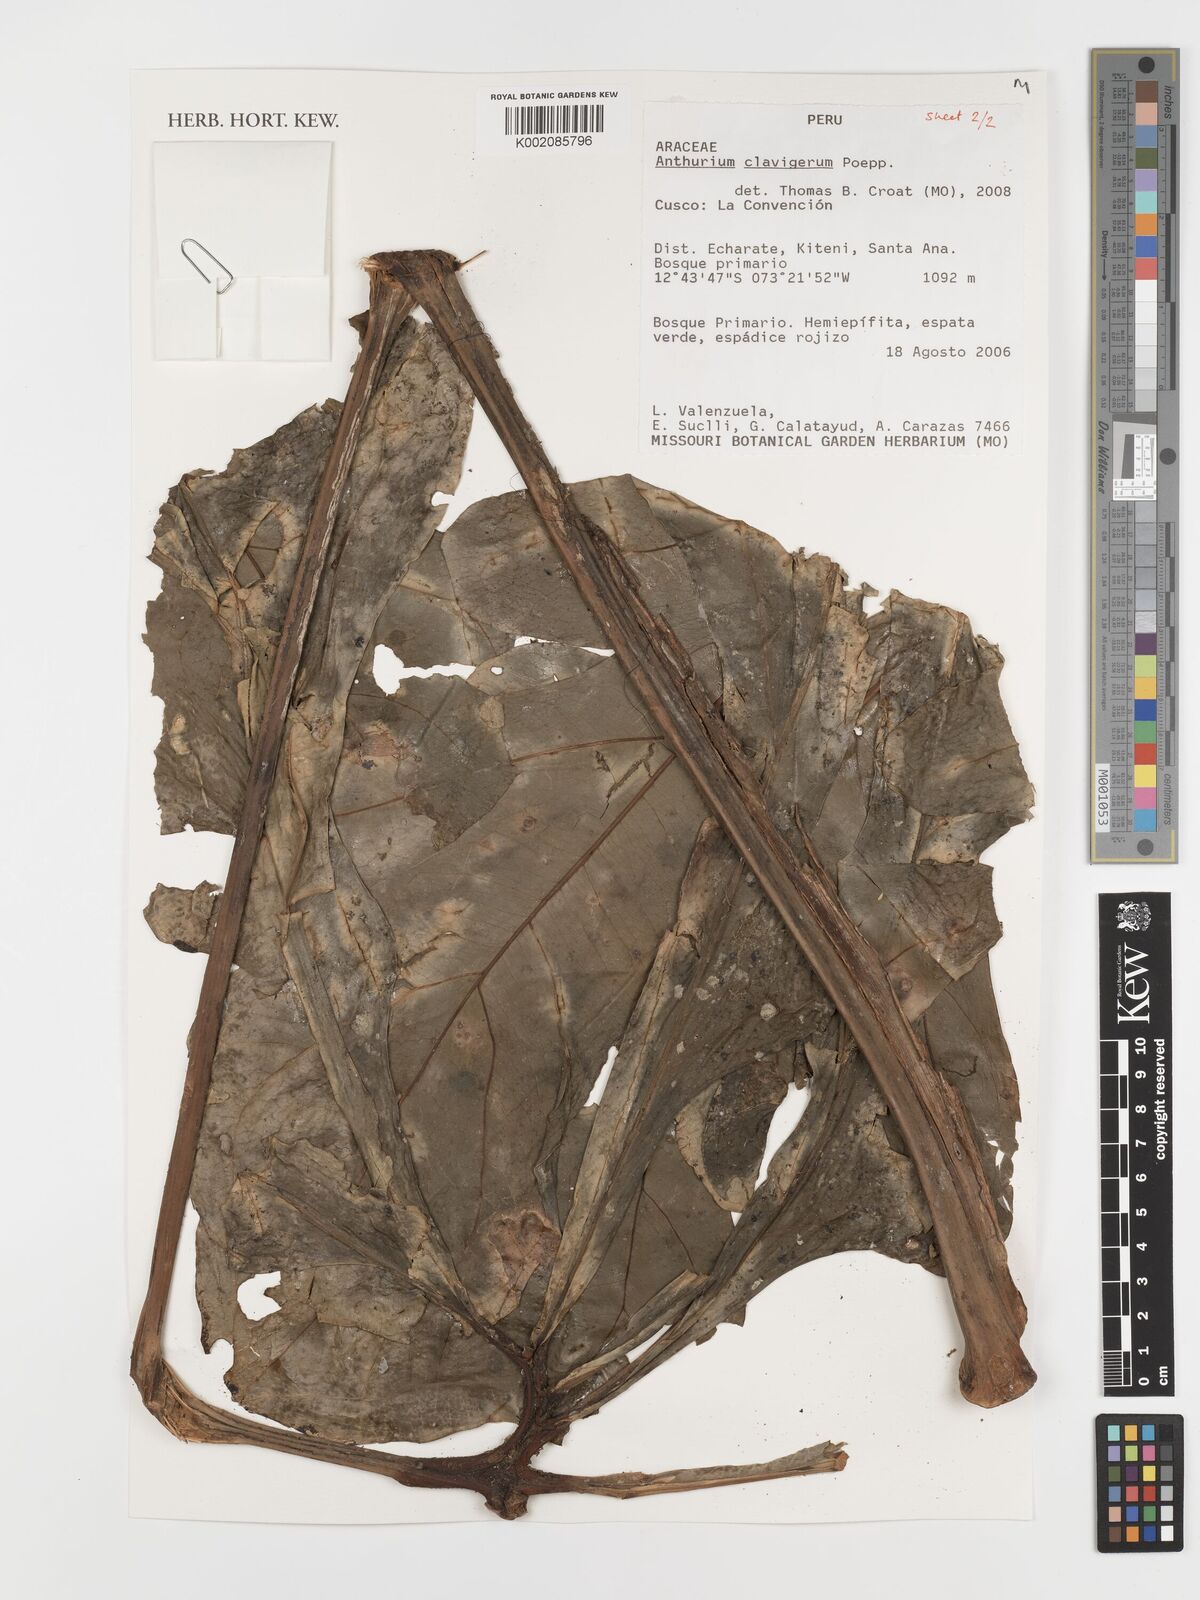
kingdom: Plantae
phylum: Tracheophyta
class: Liliopsida
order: Alismatales
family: Araceae
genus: Anthurium
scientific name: Anthurium clavigerum
